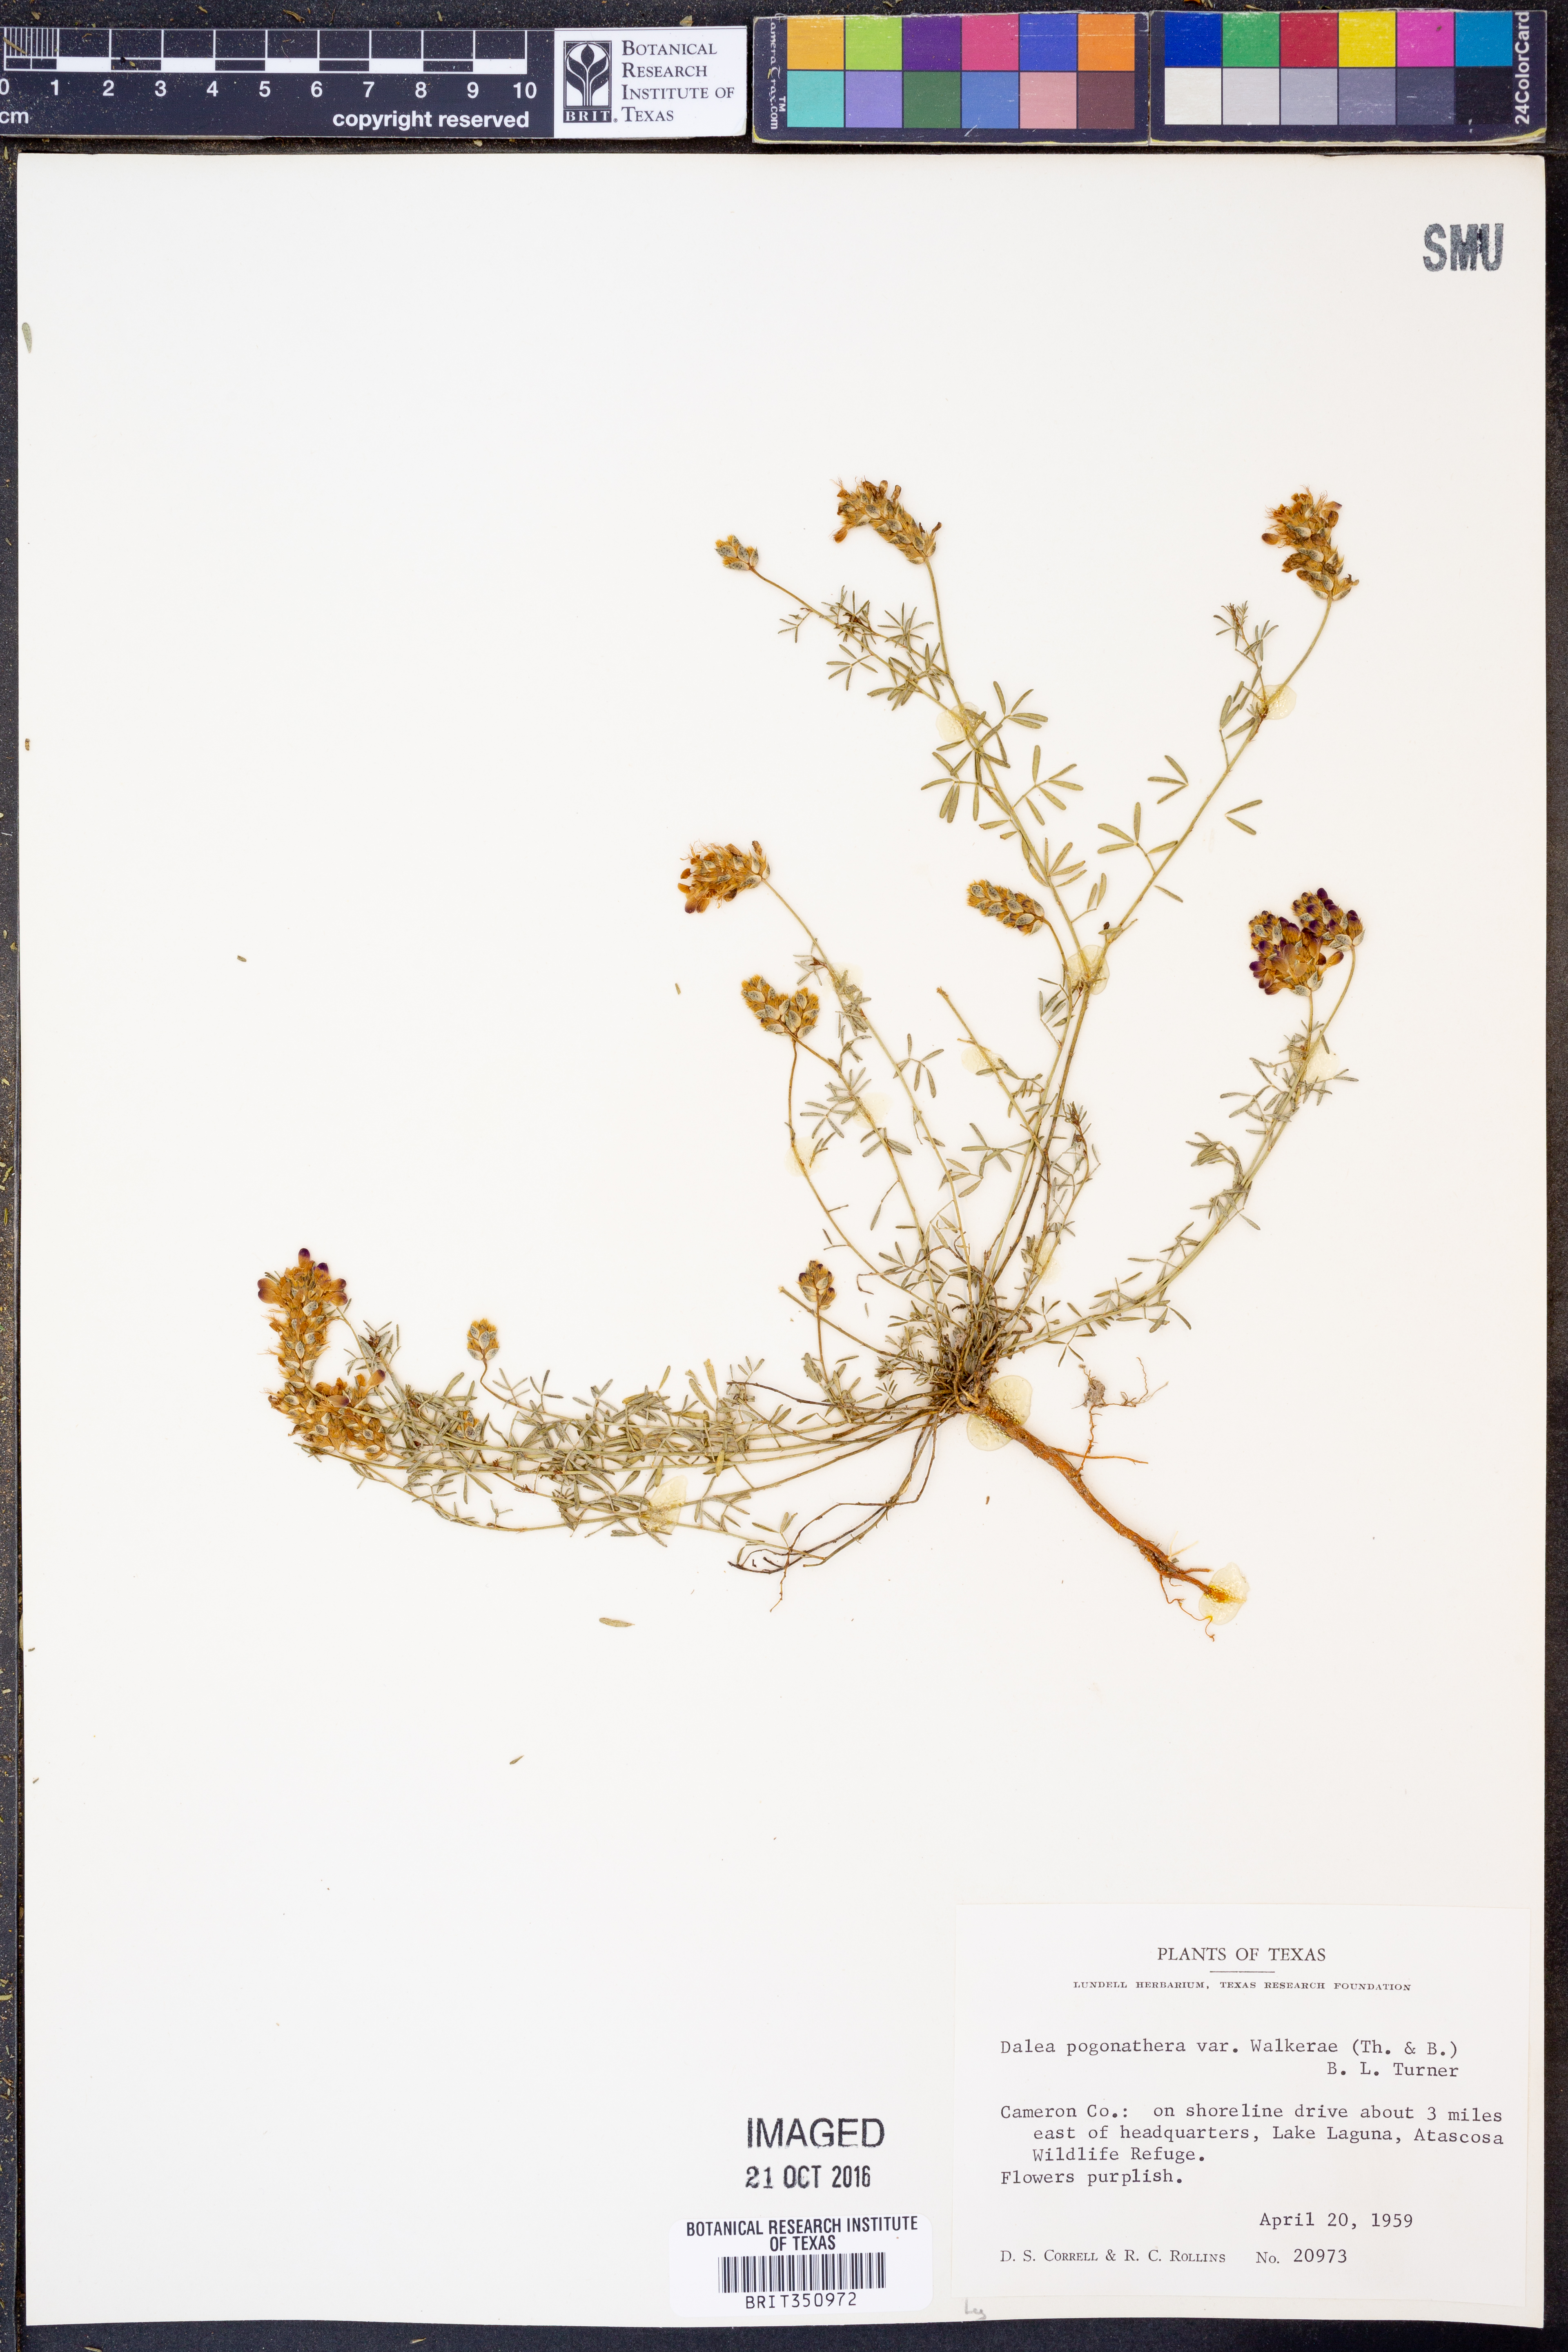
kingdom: Plantae
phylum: Tracheophyta
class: Magnoliopsida
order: Fabales
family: Fabaceae
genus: Dalea
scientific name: Dalea pogonathera
